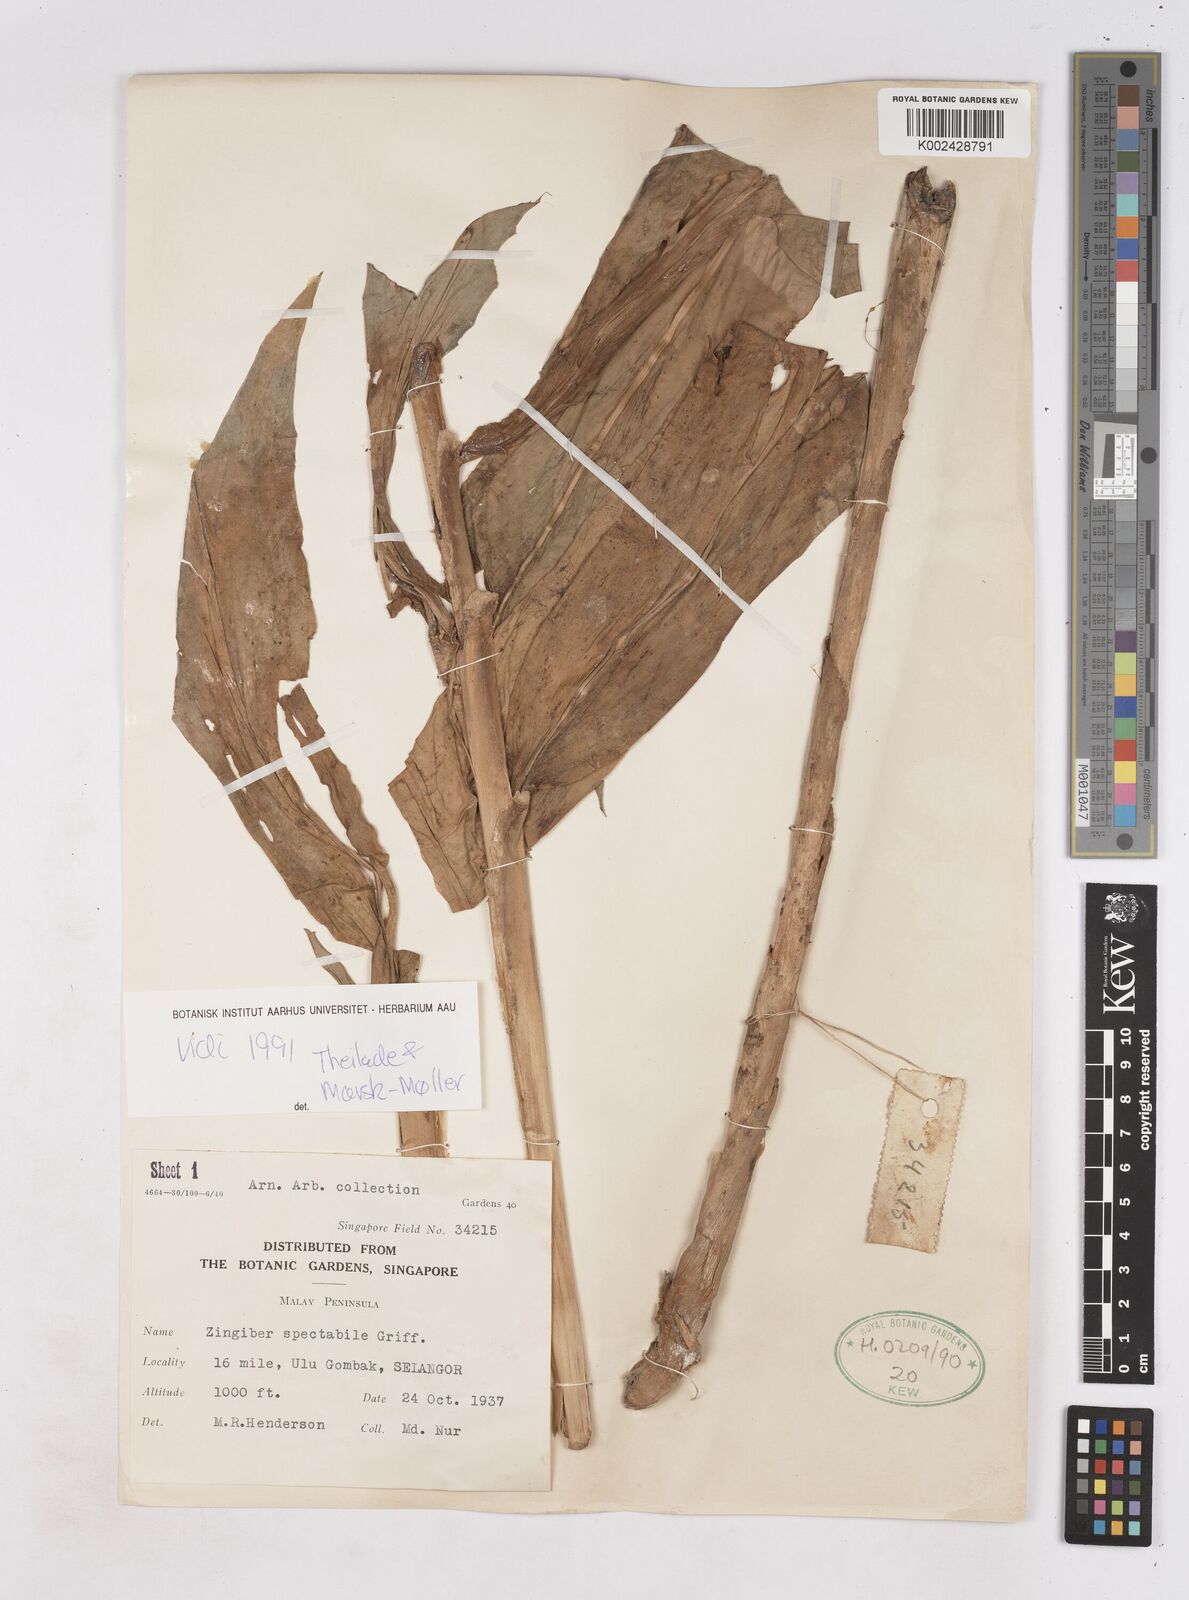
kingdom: Plantae
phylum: Tracheophyta
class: Liliopsida
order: Zingiberales
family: Zingiberaceae
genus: Zingiber
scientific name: Zingiber spectabile
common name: Beehive ginger
